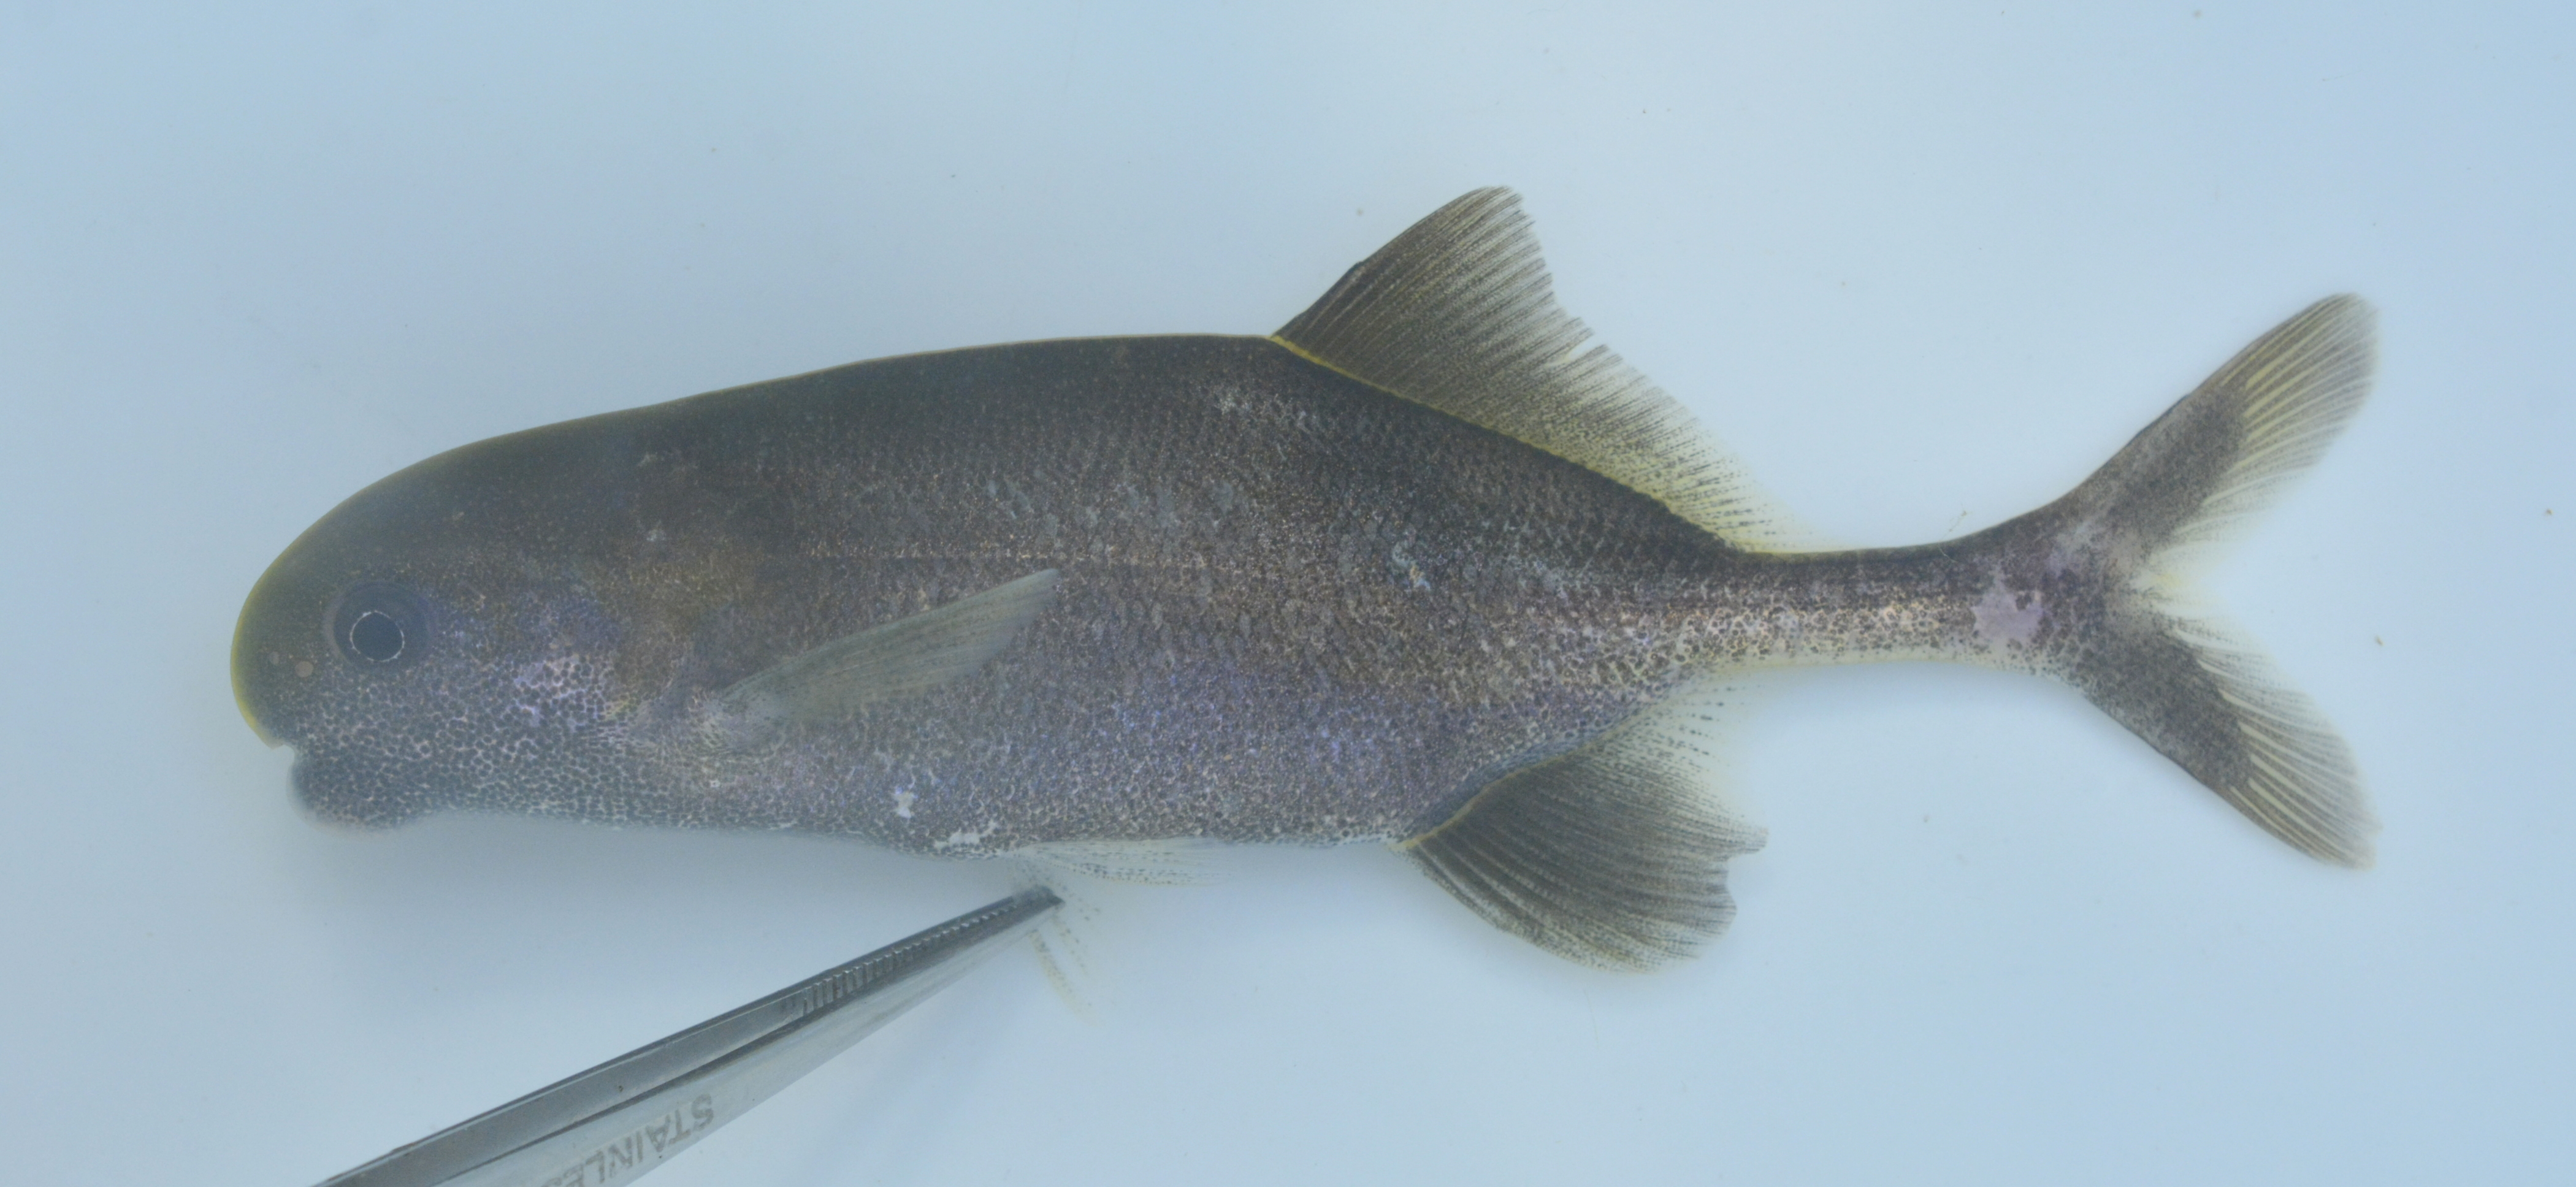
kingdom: Animalia
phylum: Chordata
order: Osteoglossiformes
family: Mormyridae
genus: Cyphomyrus
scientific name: Cyphomyrus discorhynchus
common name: Zambezi parrotfish
